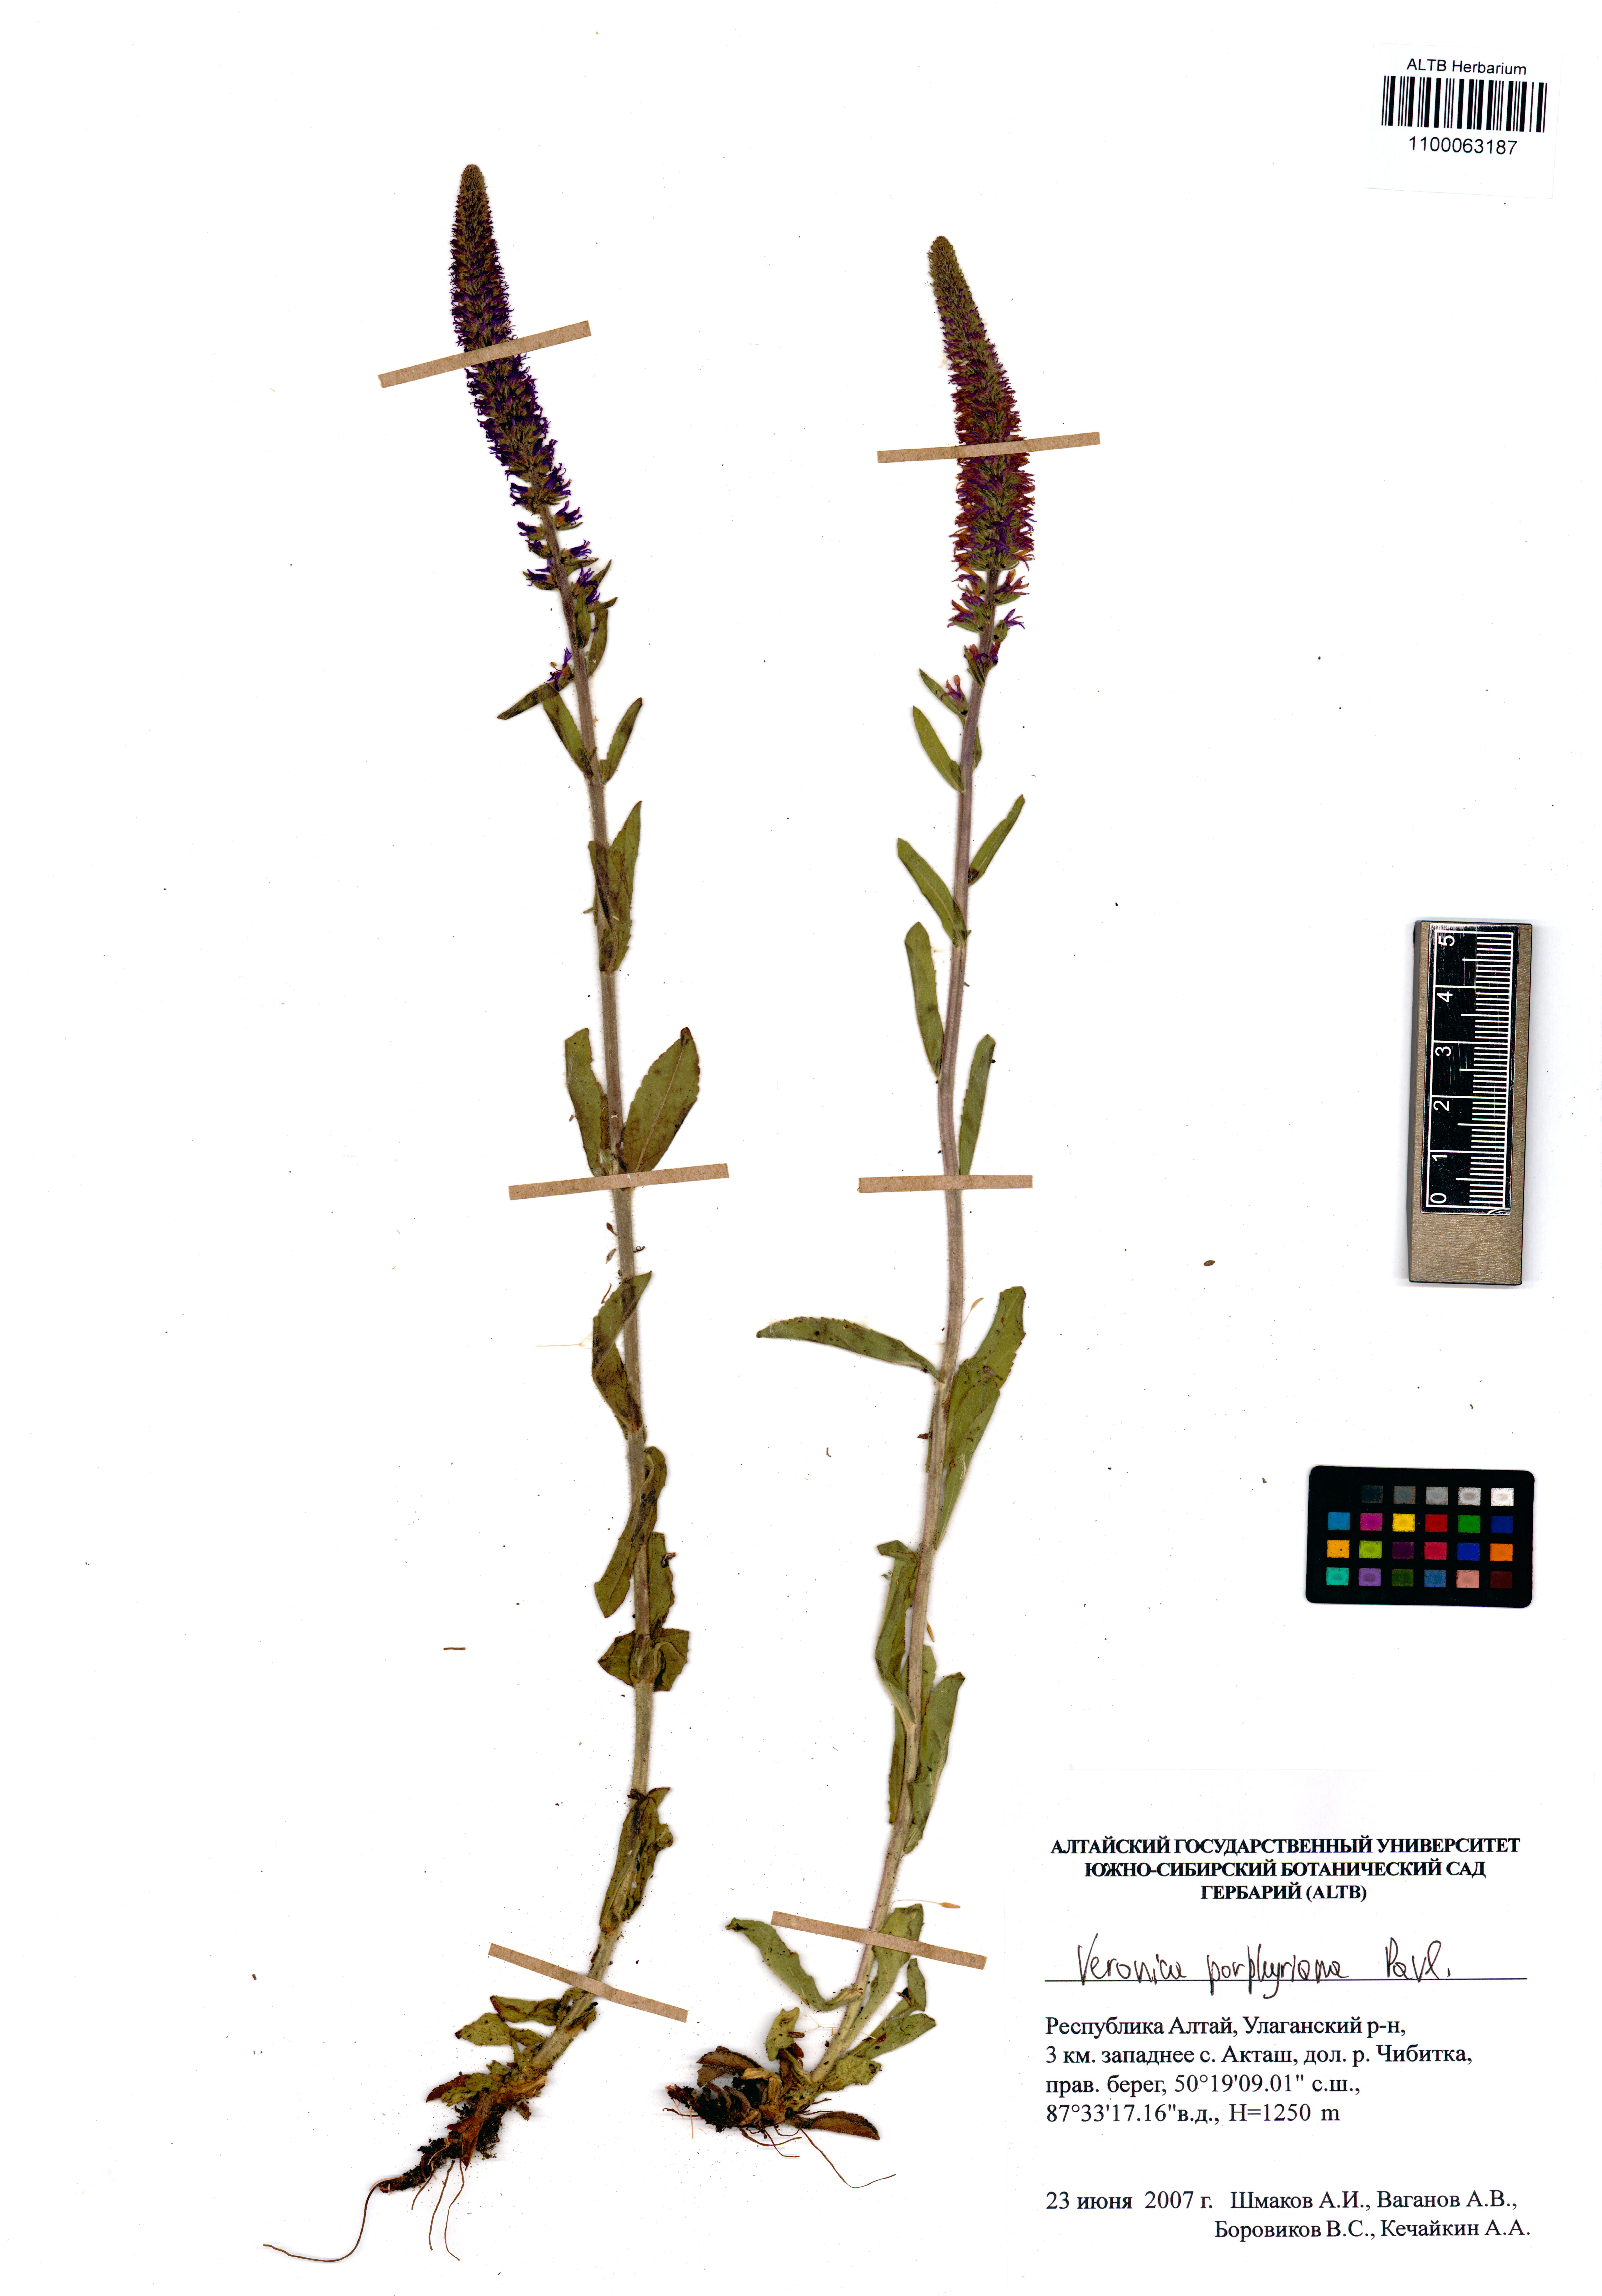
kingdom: Plantae
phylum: Tracheophyta
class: Magnoliopsida
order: Lamiales
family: Plantaginaceae
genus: Veronica
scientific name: Veronica porphyriana
